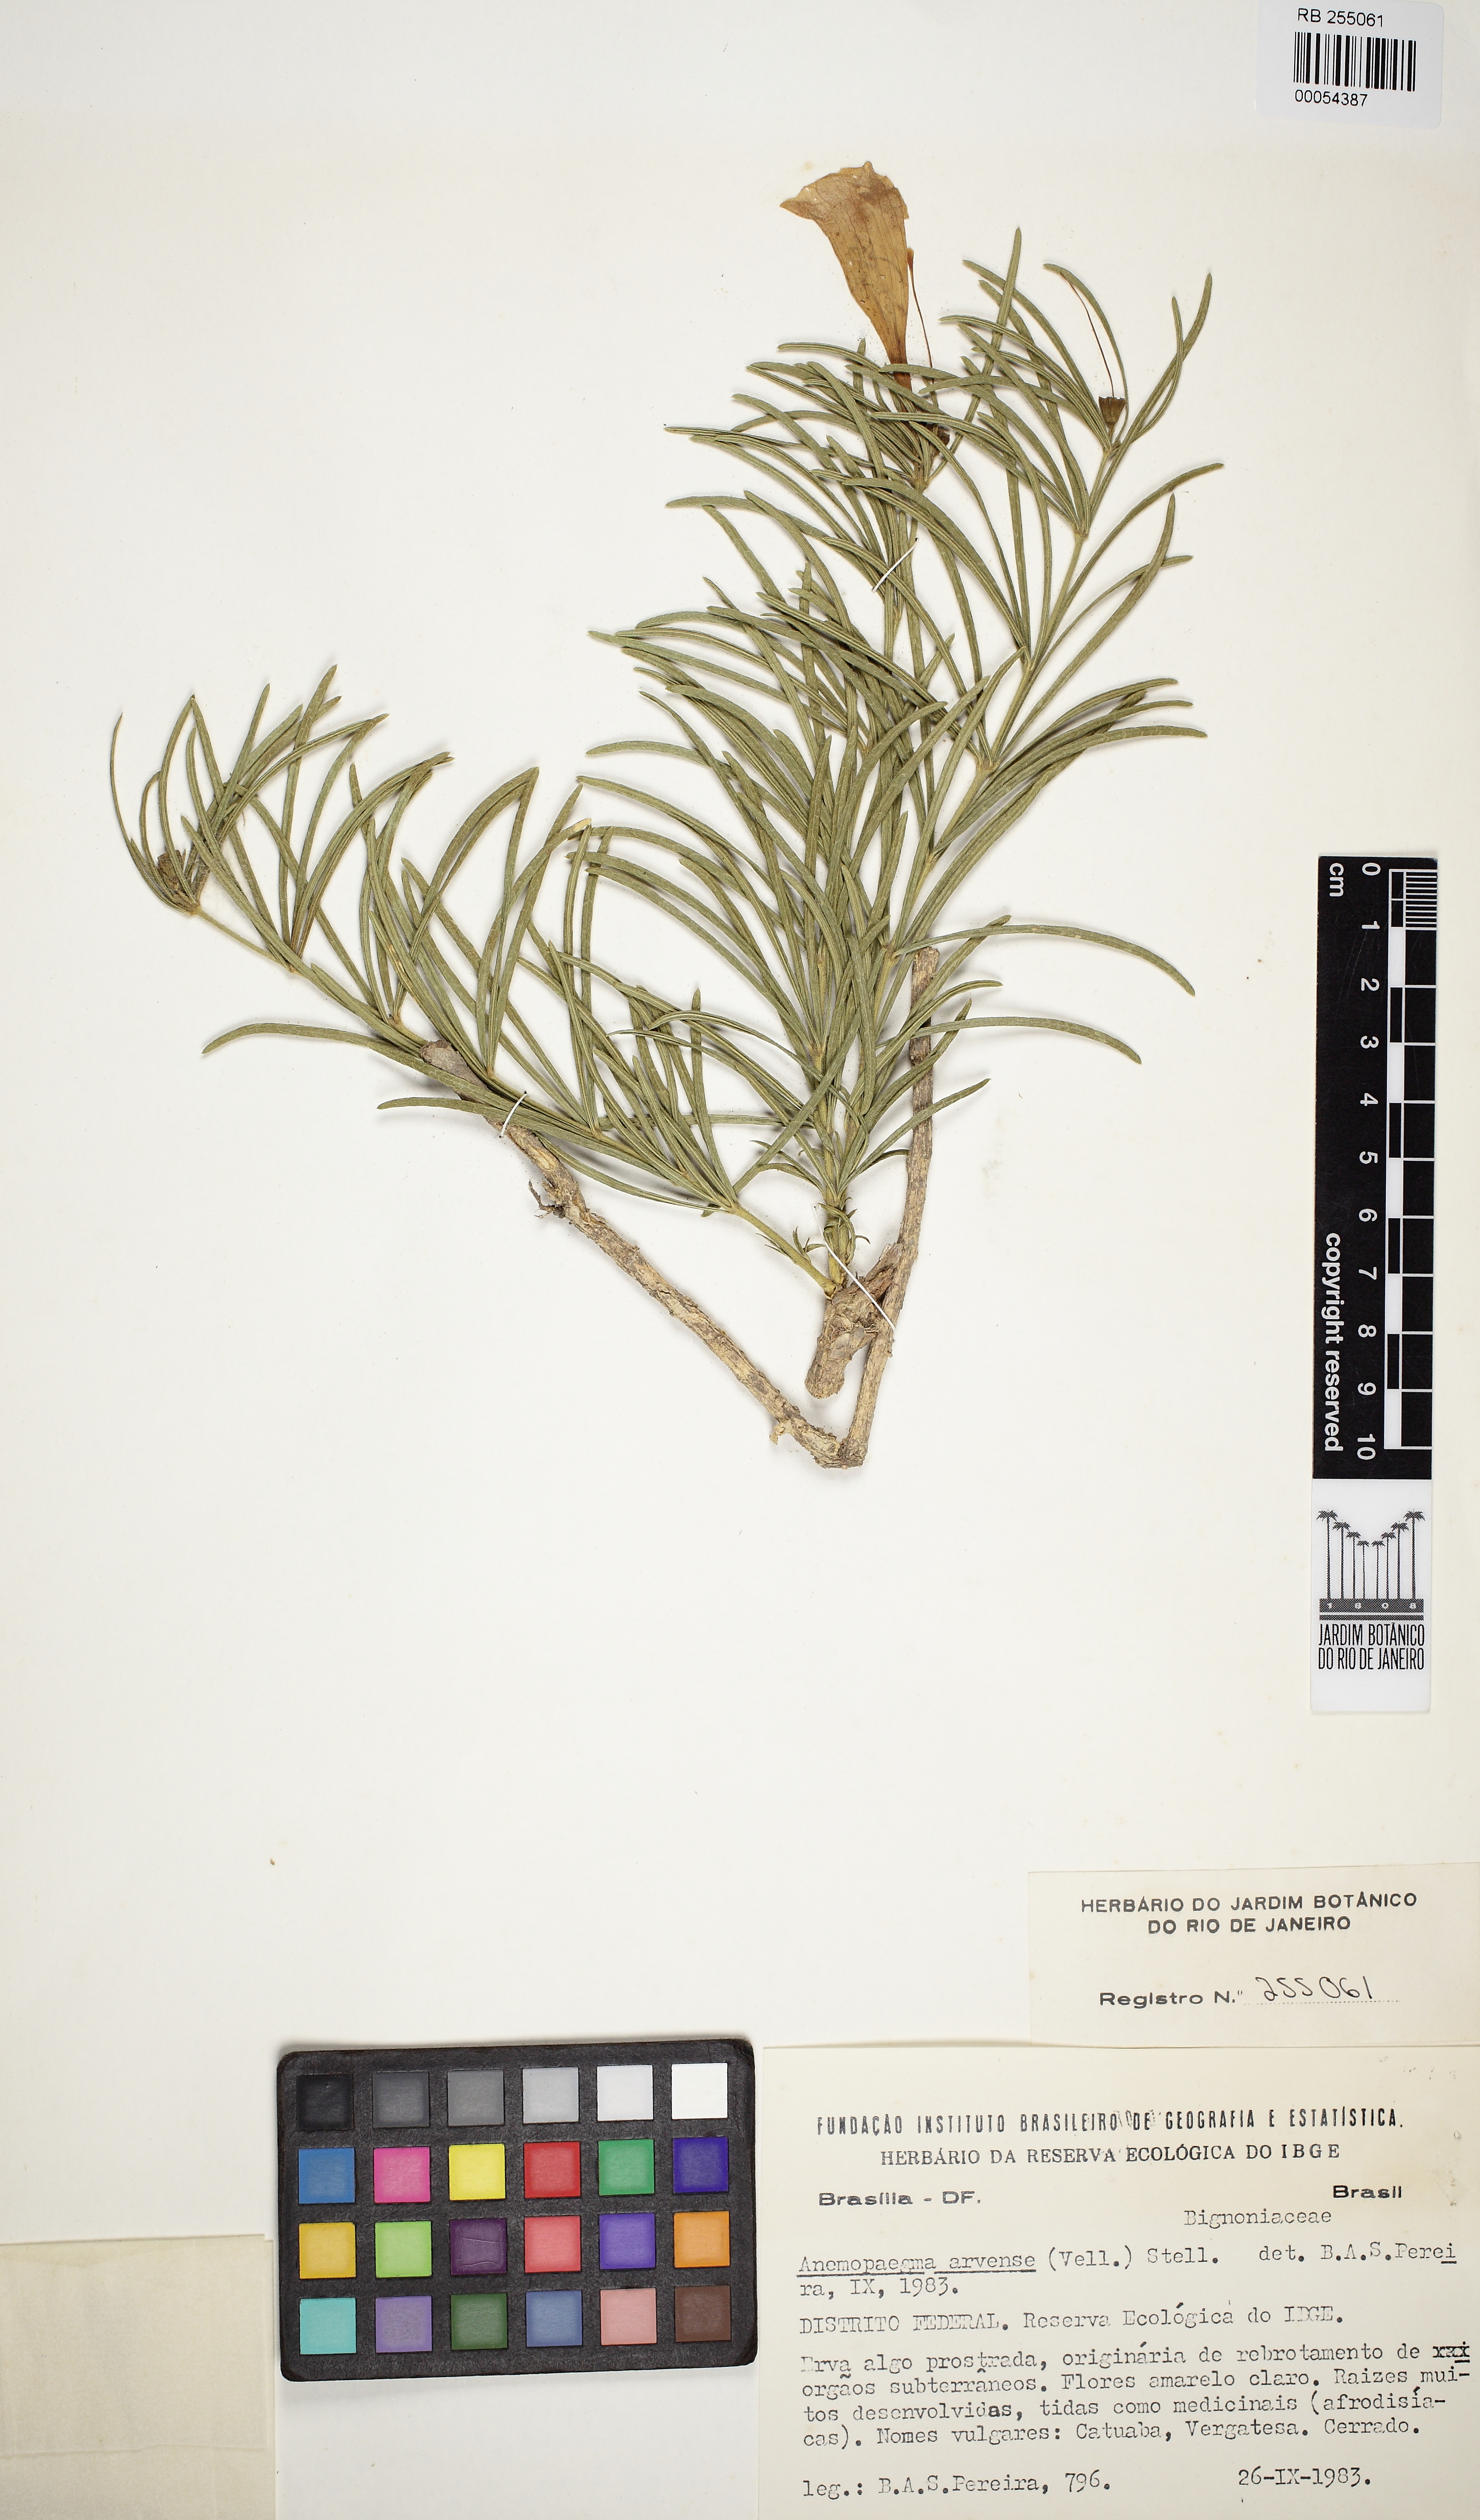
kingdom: Plantae
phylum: Tracheophyta
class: Magnoliopsida
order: Lamiales
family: Bignoniaceae
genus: Anemopaegma
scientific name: Anemopaegma arvense
